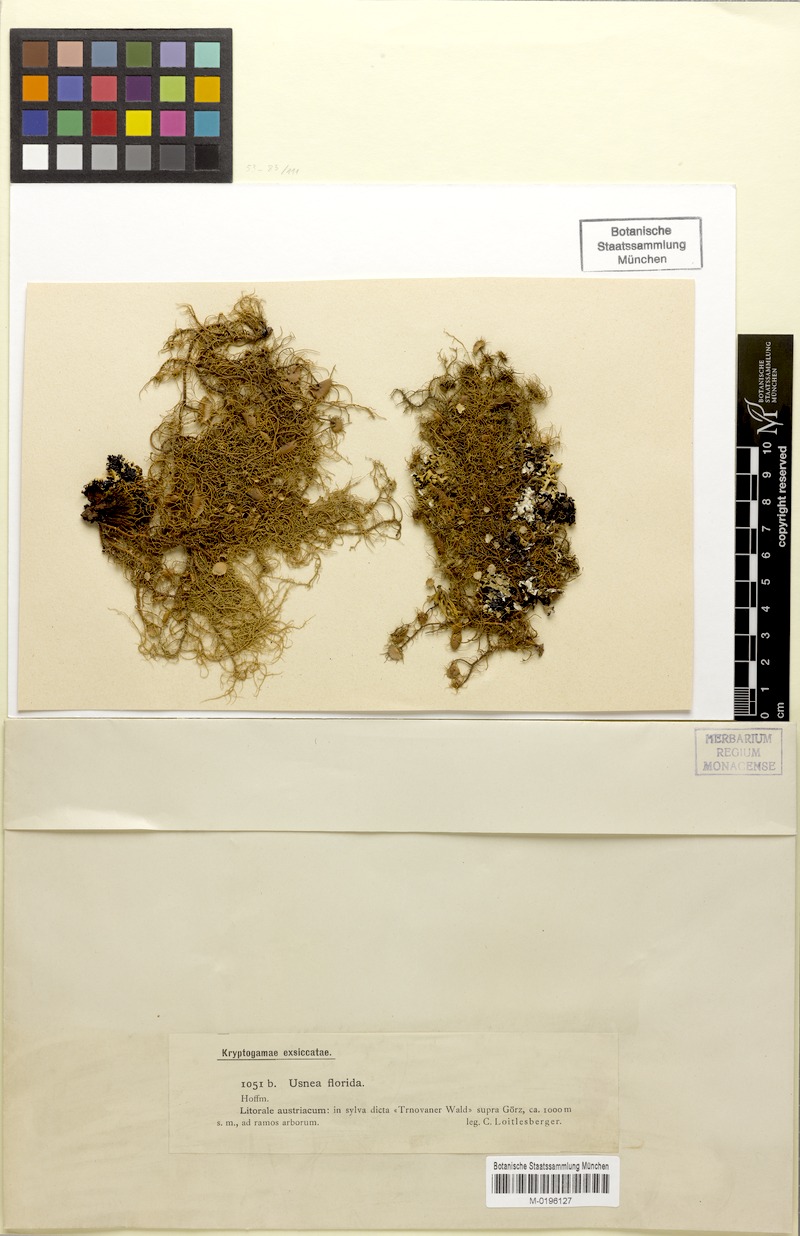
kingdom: Fungi
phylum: Ascomycota
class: Lecanoromycetes
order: Lecanorales
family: Parmeliaceae
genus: Usnea
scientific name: Usnea florida
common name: Witches' whiskers lichen
